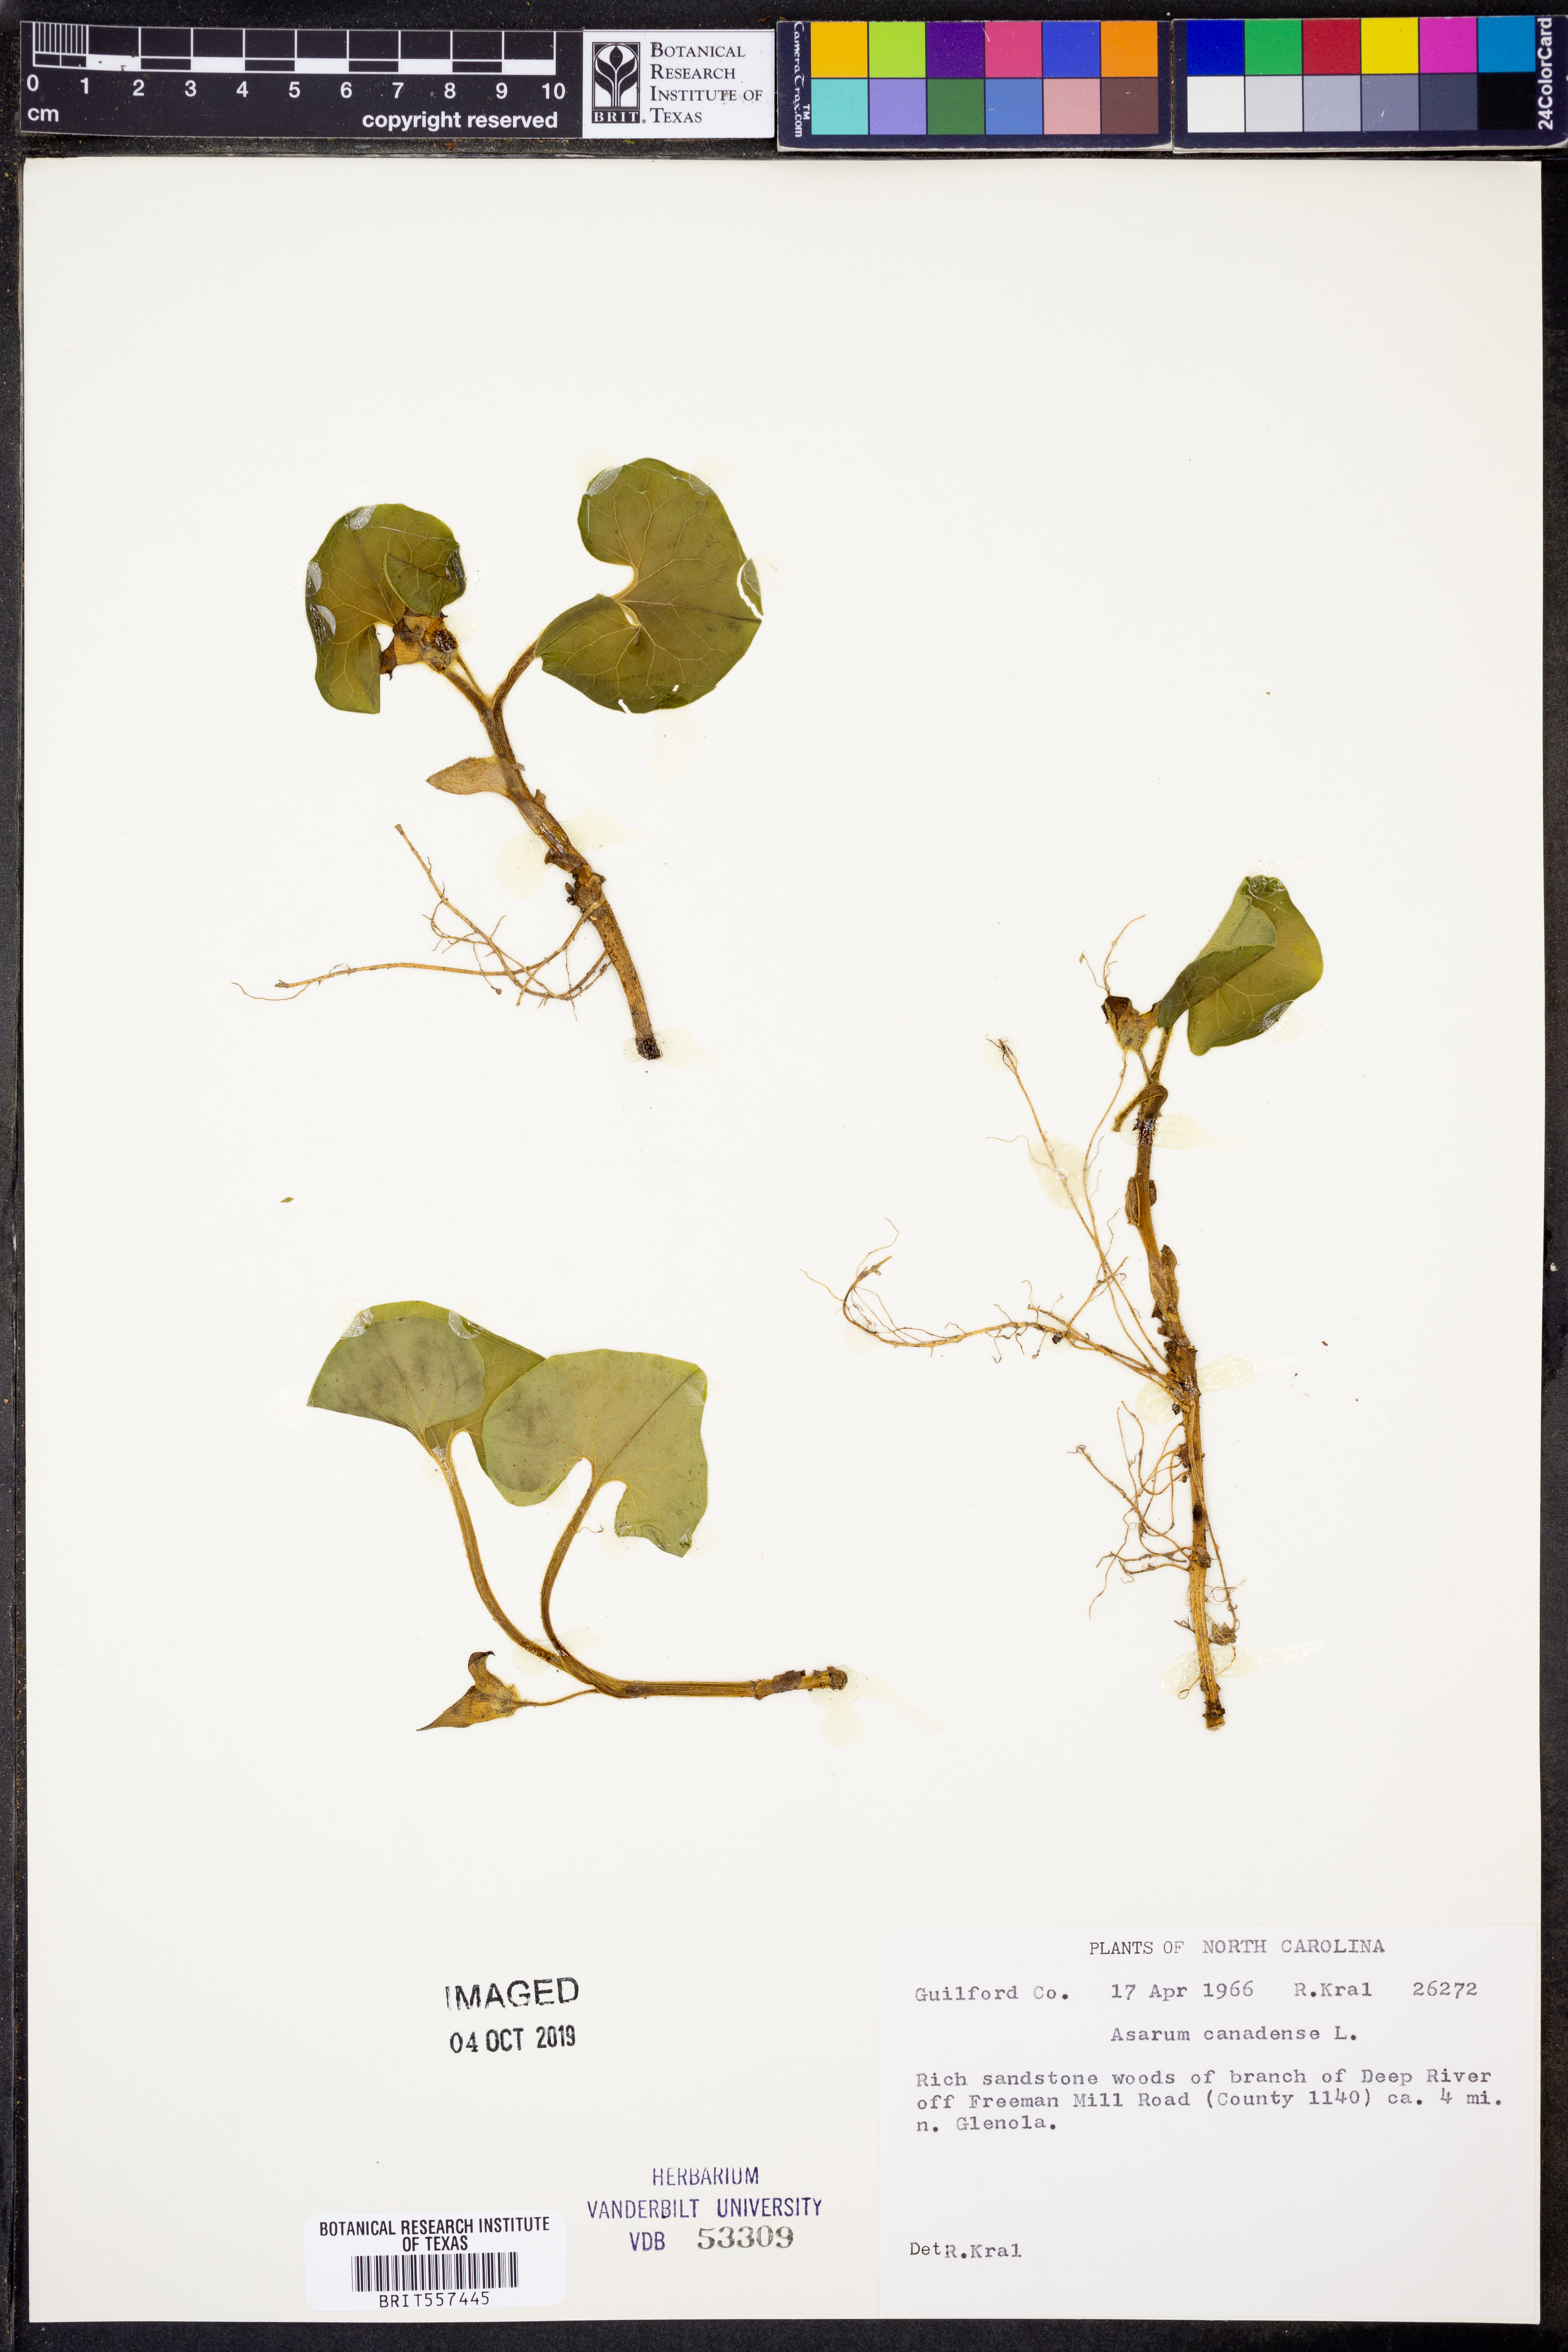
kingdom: Plantae
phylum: Tracheophyta
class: Magnoliopsida
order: Piperales
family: Aristolochiaceae
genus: Asarum
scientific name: Asarum canadense
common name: Wild ginger
